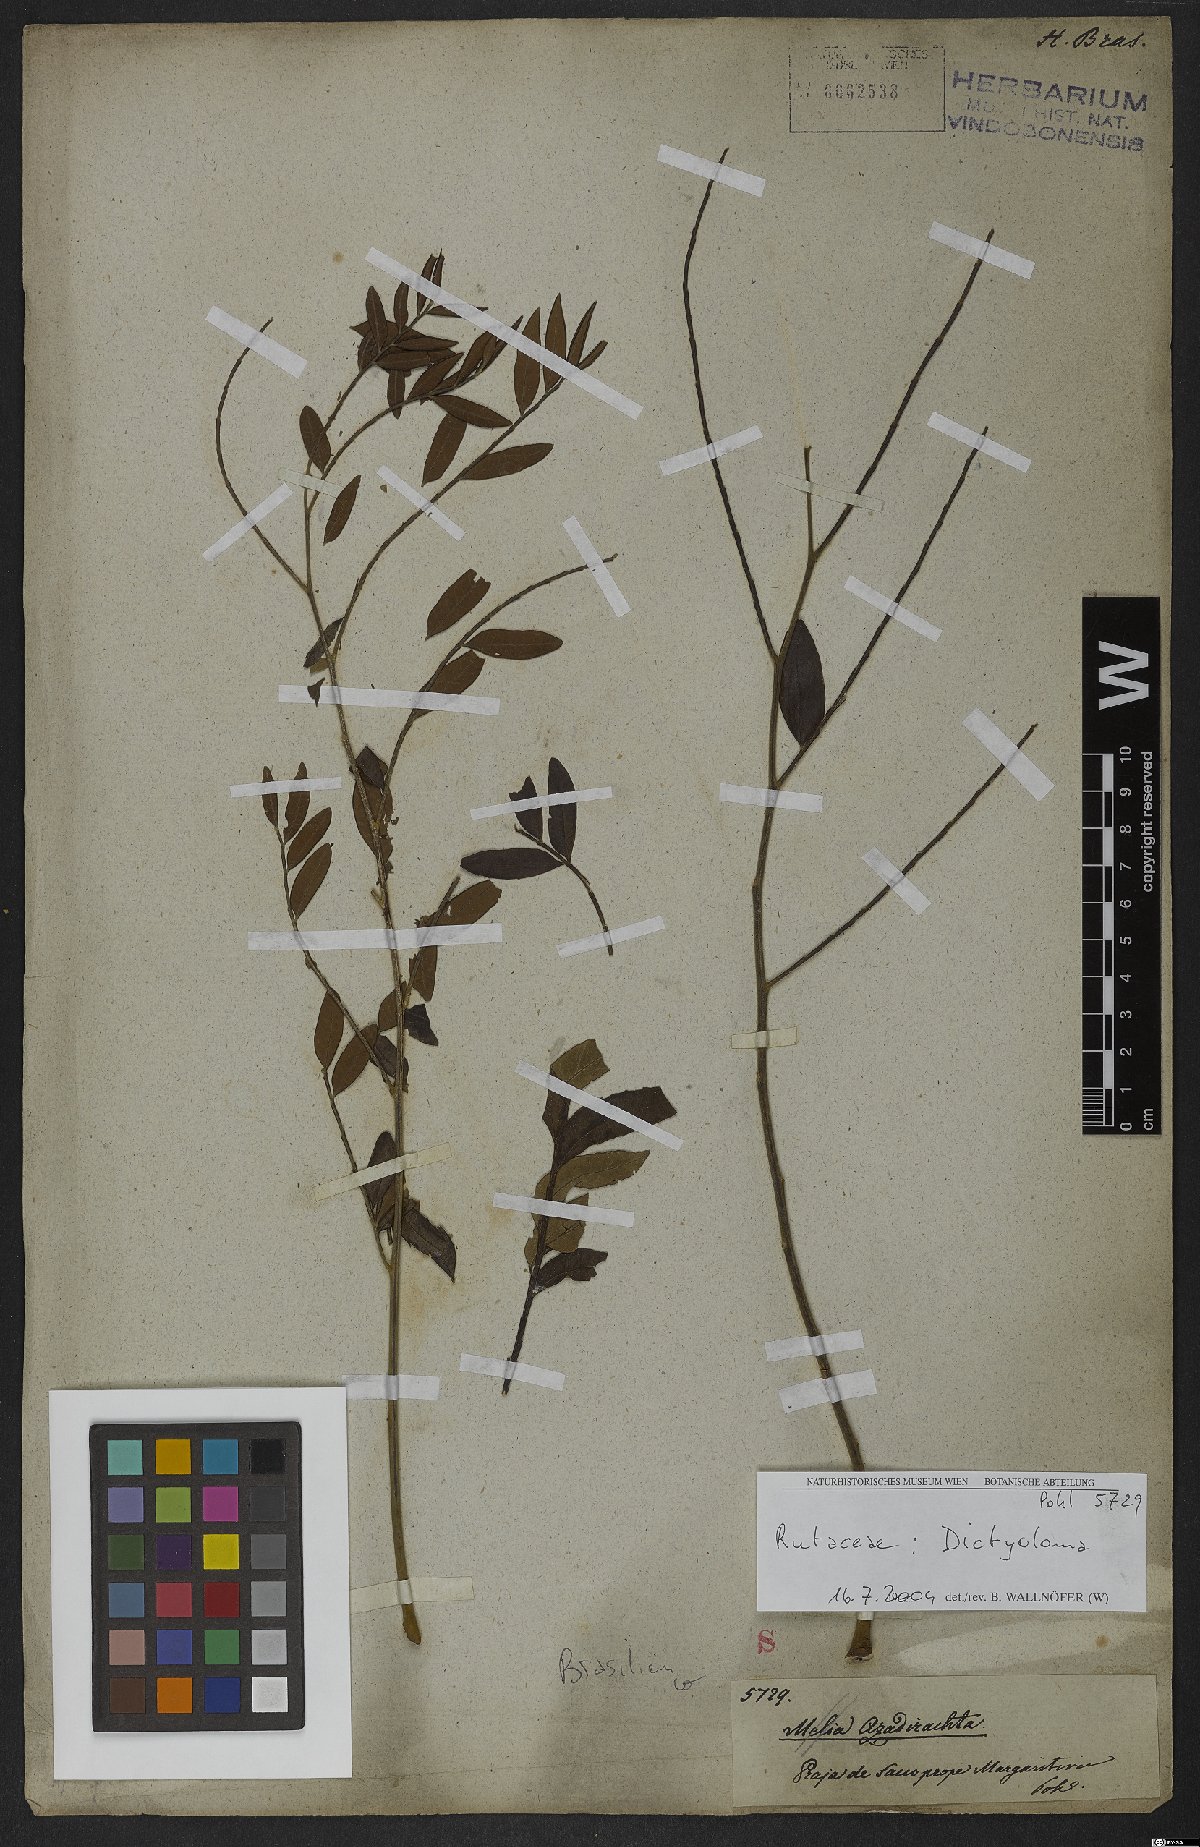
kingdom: Plantae
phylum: Tracheophyta
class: Magnoliopsida
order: Sapindales
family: Rutaceae
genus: Dictyoloma
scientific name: Dictyoloma
